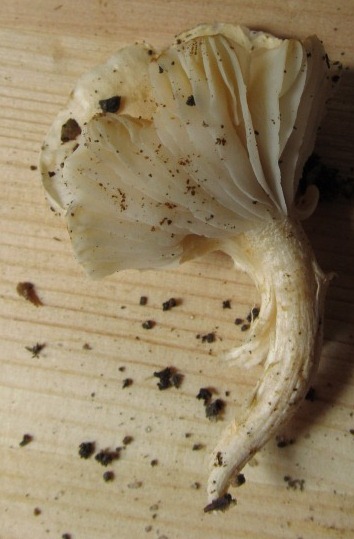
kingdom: Fungi
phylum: Basidiomycota
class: Agaricomycetes
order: Agaricales
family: Hygrophoraceae
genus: Hygrophorus
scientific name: Hygrophorus unicolor
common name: orangeøjet sneglehat
